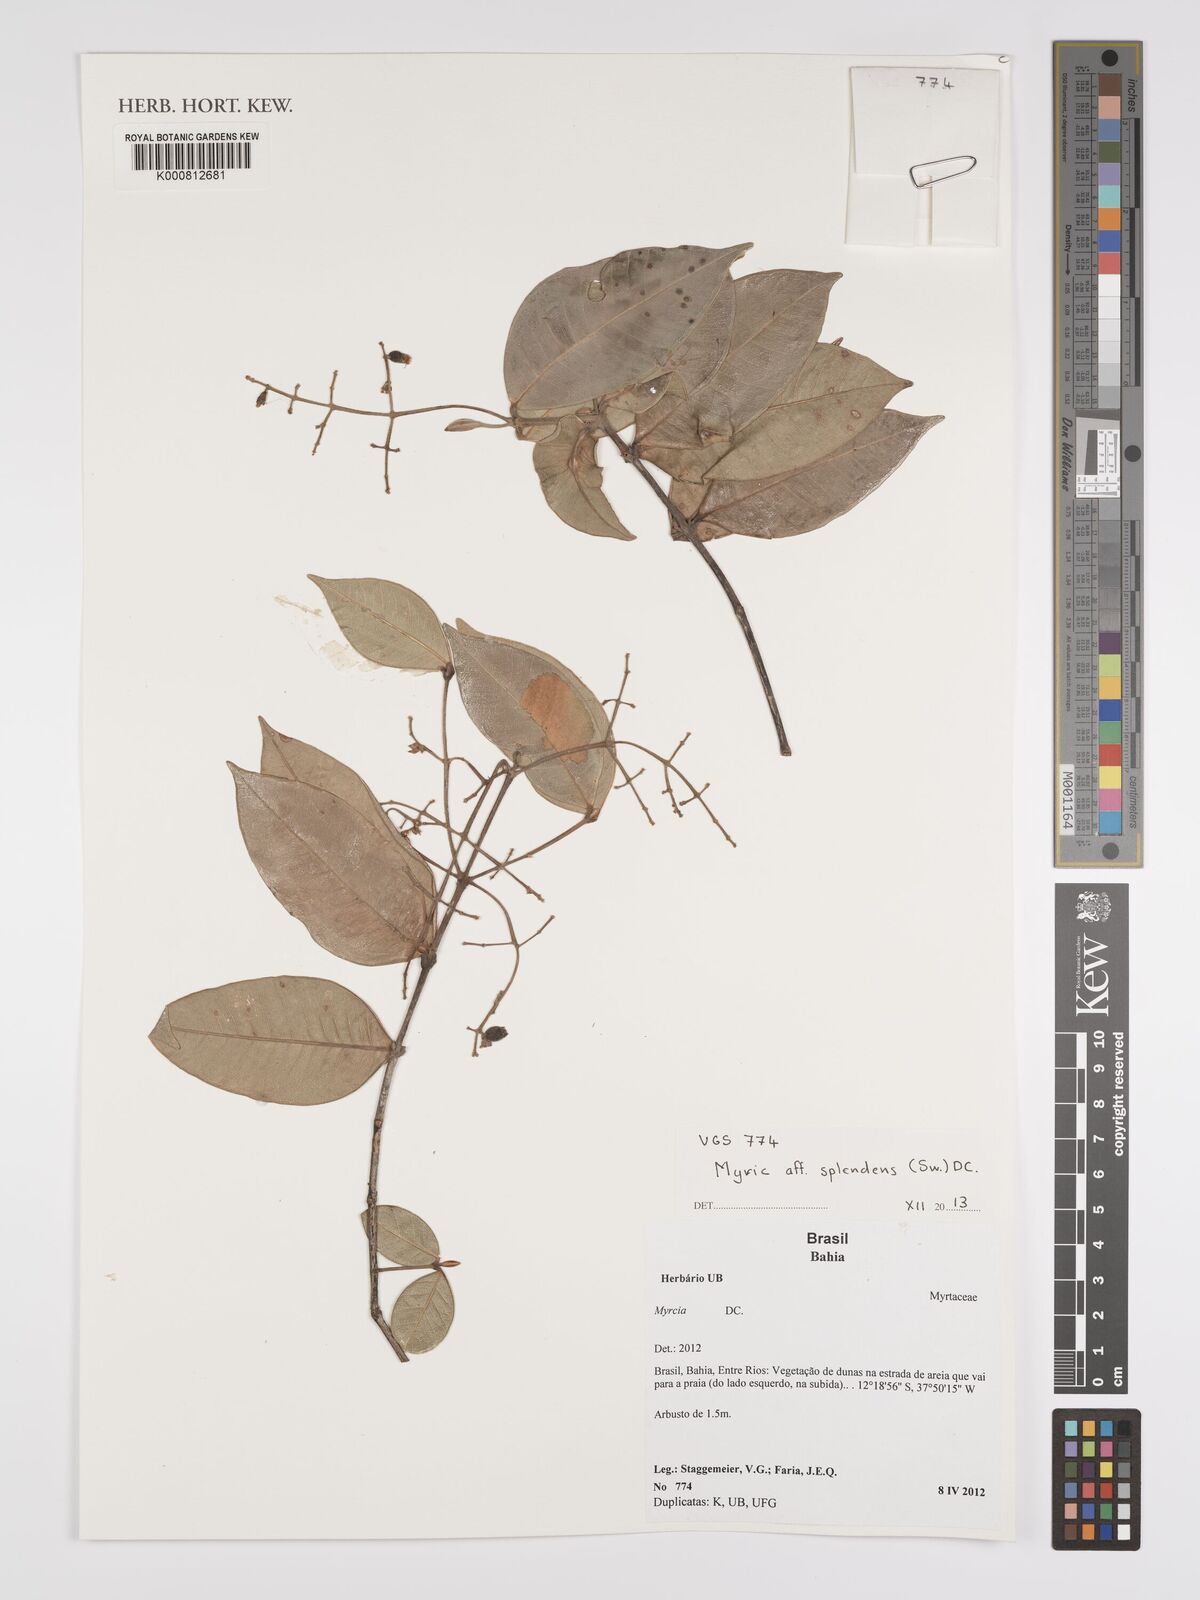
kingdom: Plantae
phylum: Tracheophyta
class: Magnoliopsida
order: Myrtales
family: Myrtaceae
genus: Myrcia
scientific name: Myrcia splendens
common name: Surinam cherry
